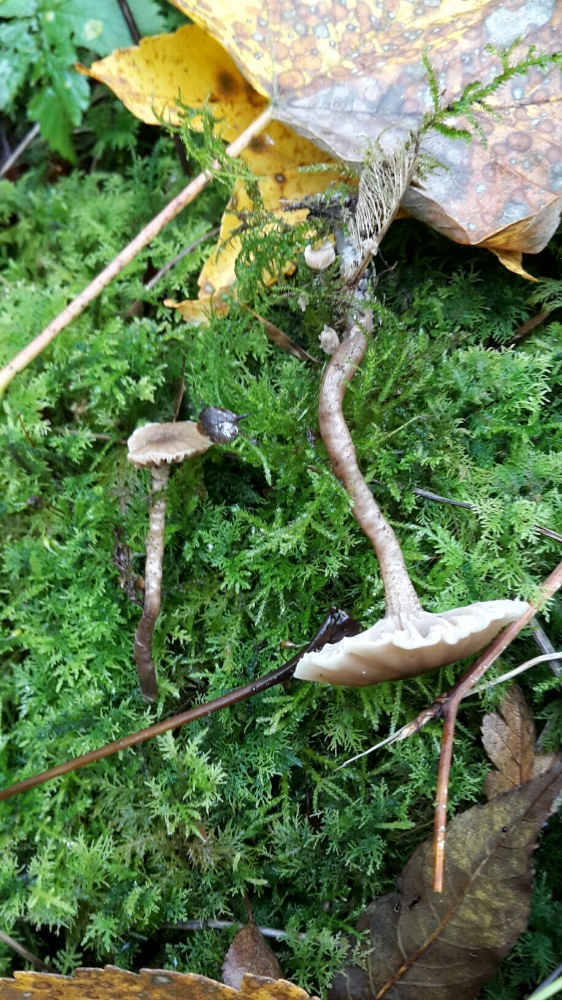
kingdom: Fungi
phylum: Basidiomycota
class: Agaricomycetes
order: Agaricales
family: Clavariaceae
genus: Hodophilus
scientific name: Hodophilus variabilipes
